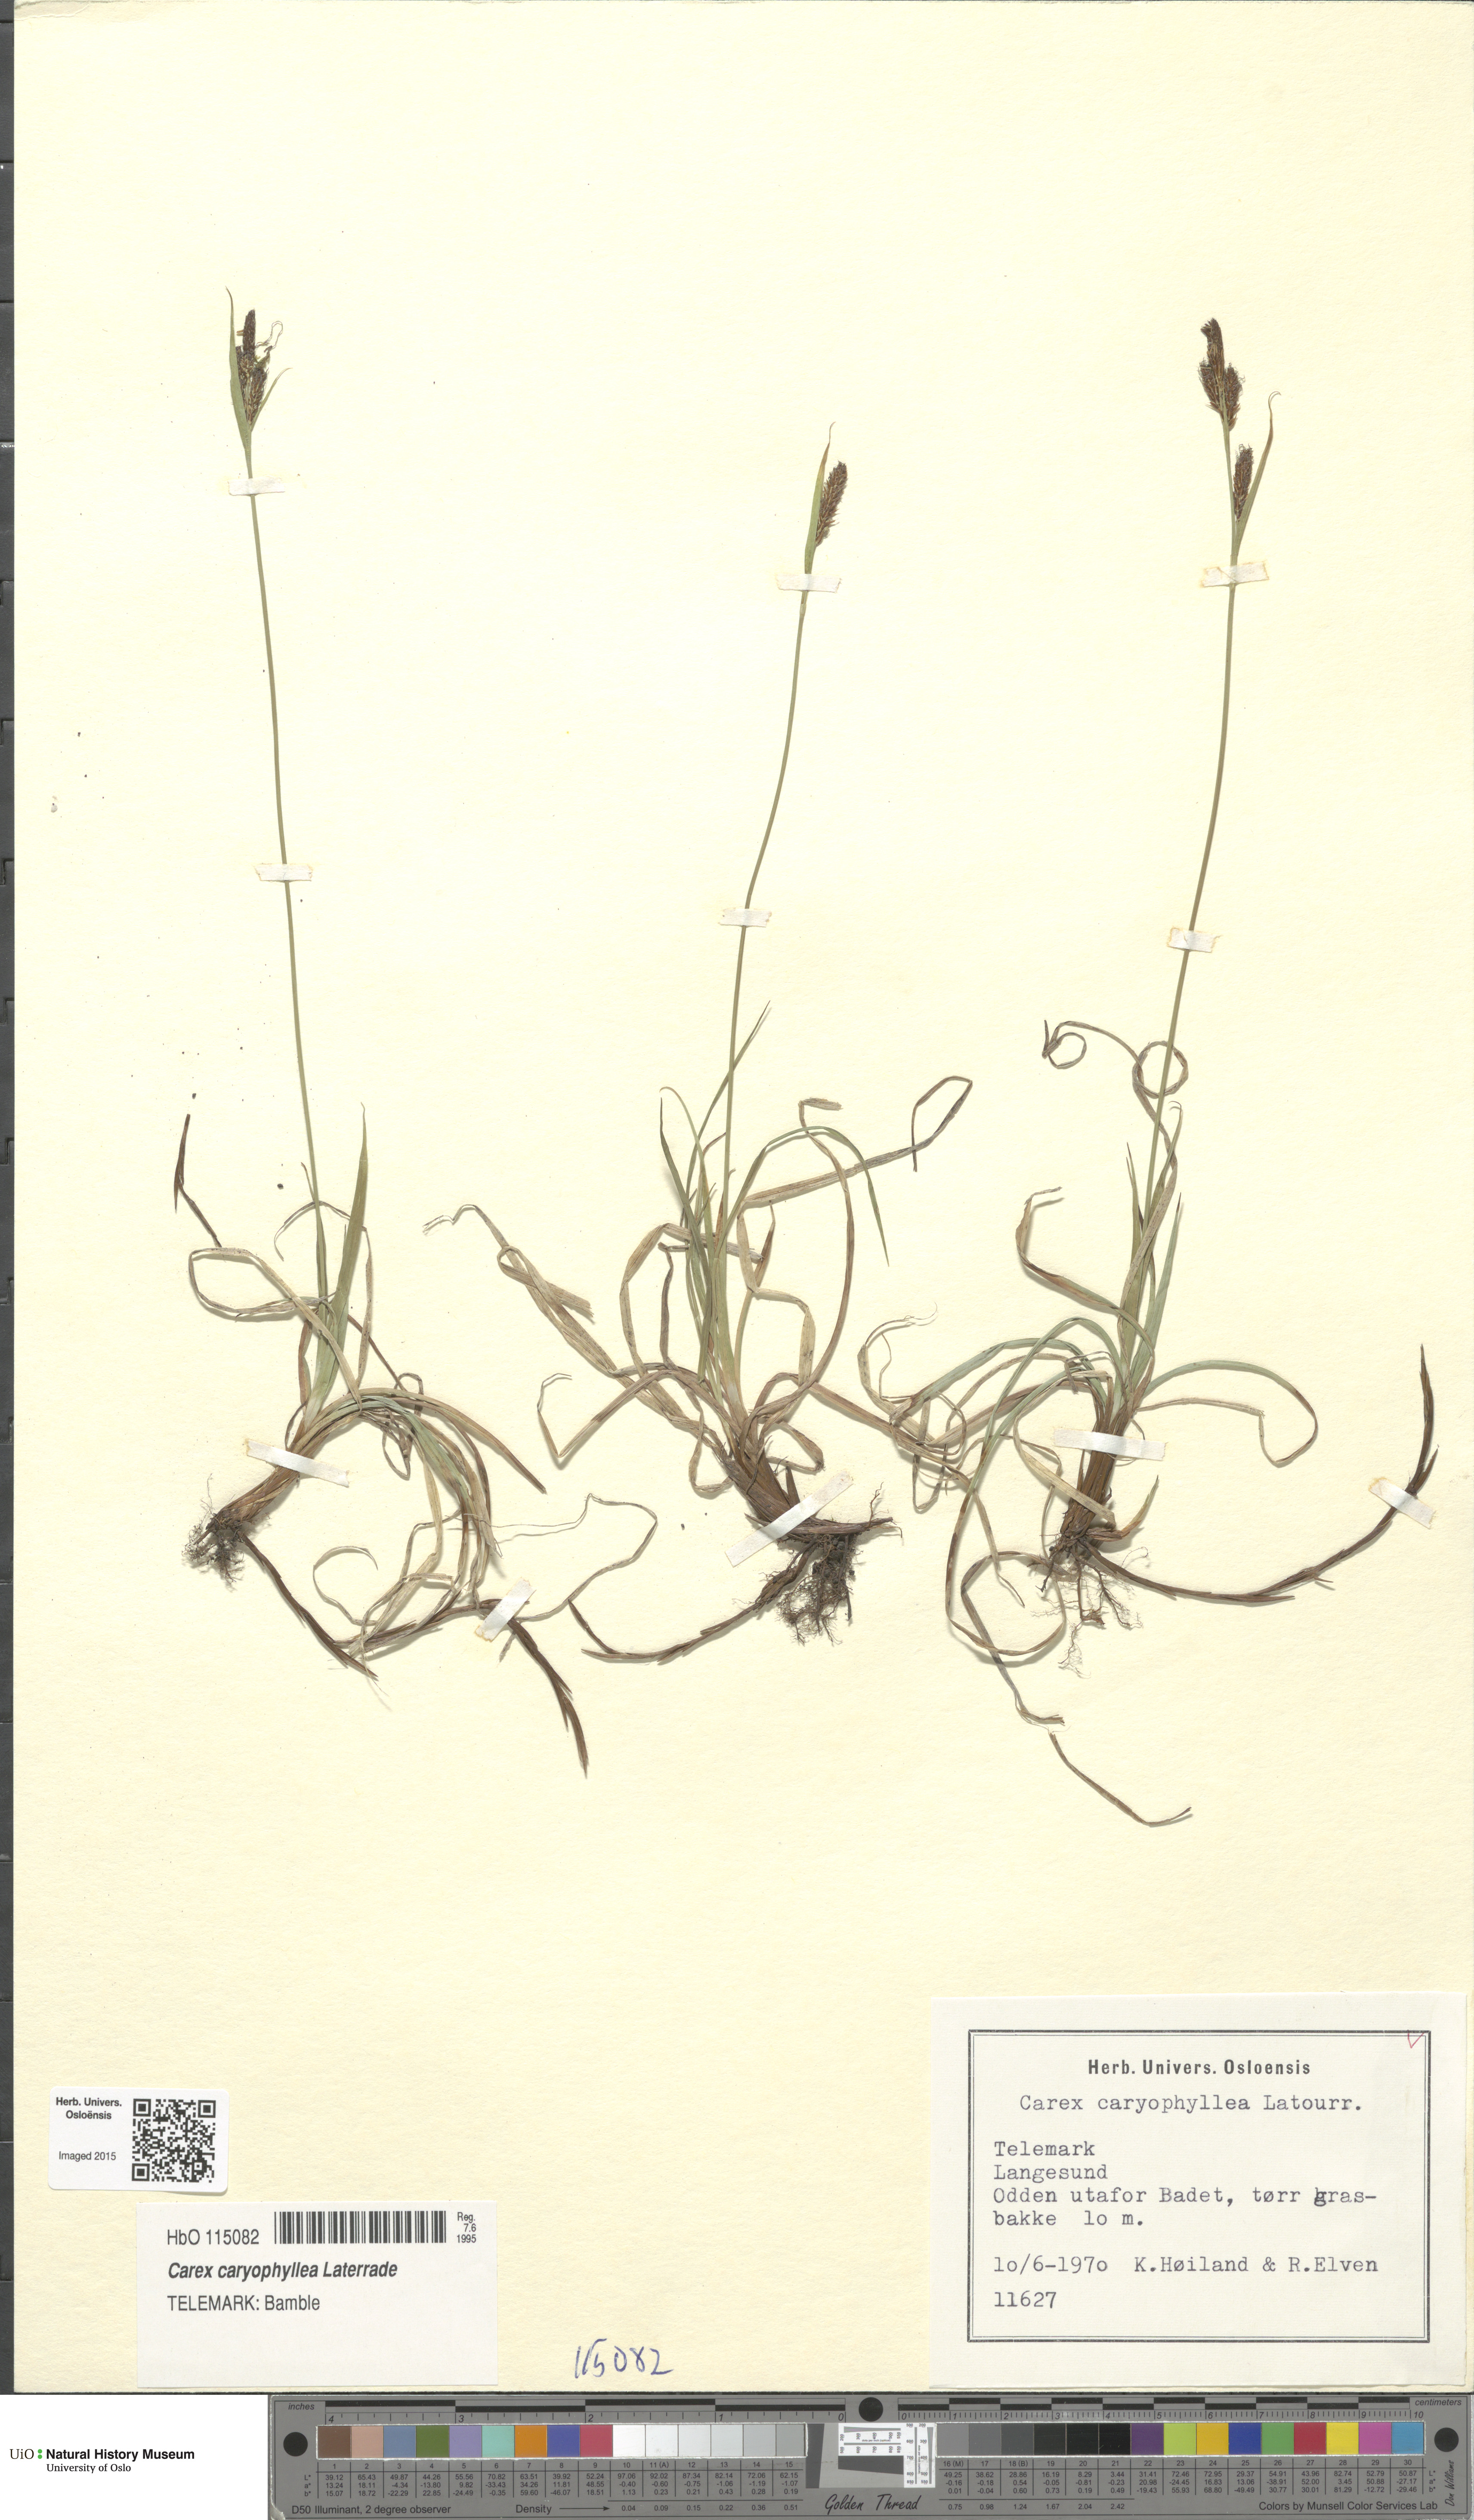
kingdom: Plantae
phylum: Tracheophyta
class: Liliopsida
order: Poales
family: Cyperaceae
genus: Carex
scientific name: Carex caryophyllea
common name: Spring sedge
